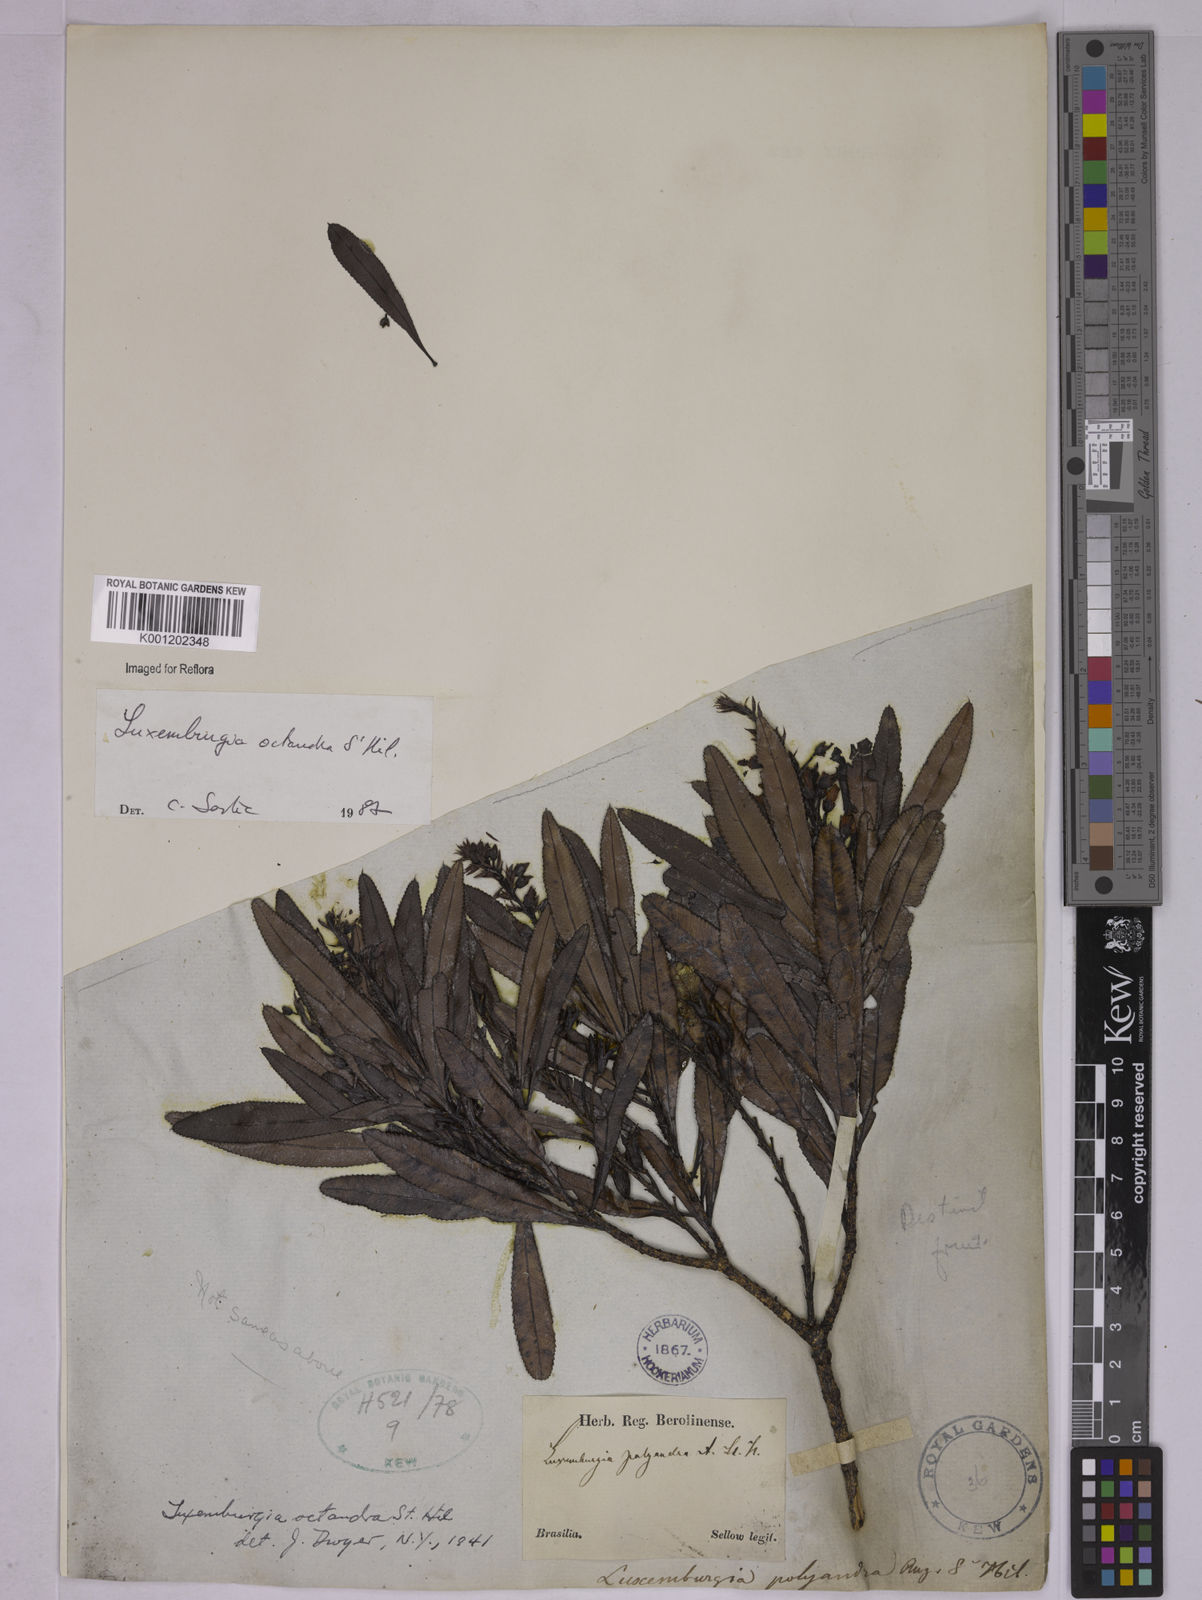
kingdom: Plantae
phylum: Tracheophyta
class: Magnoliopsida
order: Malpighiales
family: Ochnaceae
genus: Luxemburgia
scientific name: Luxemburgia octandra
